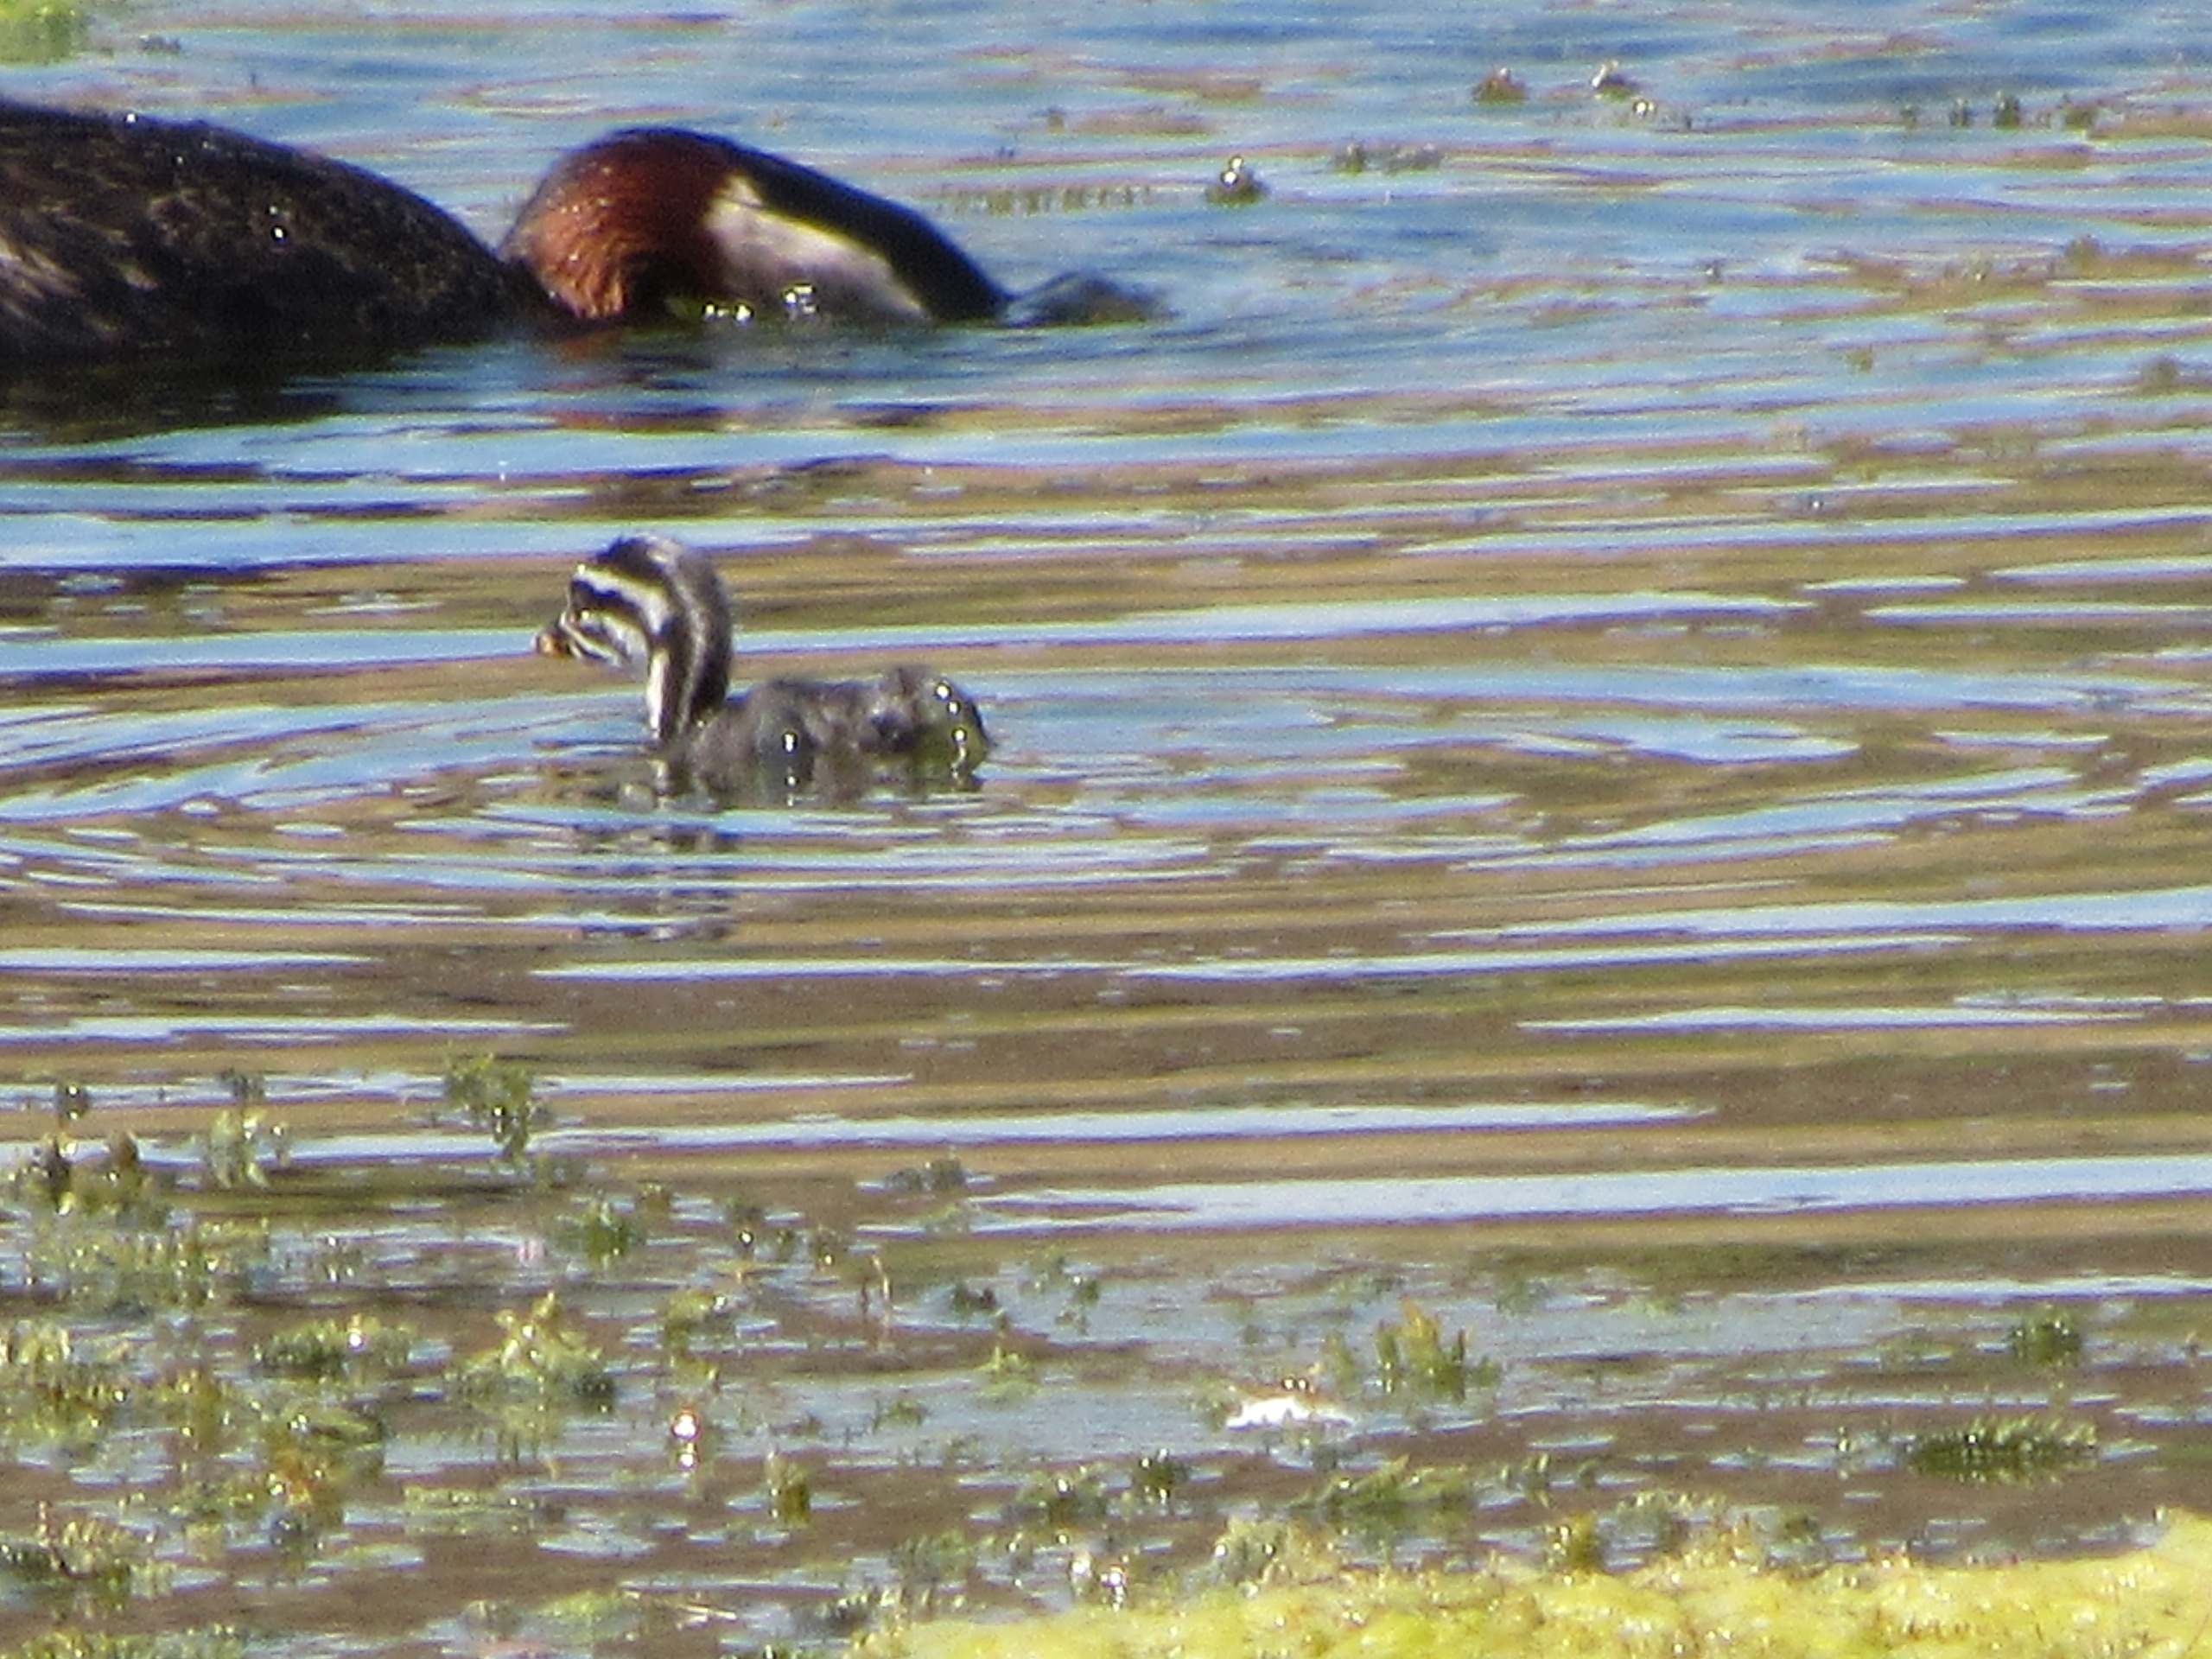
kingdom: Animalia
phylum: Chordata
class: Aves
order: Podicipediformes
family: Podicipedidae
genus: Podiceps
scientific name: Podiceps grisegena
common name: Gråstrubet lappedykker
